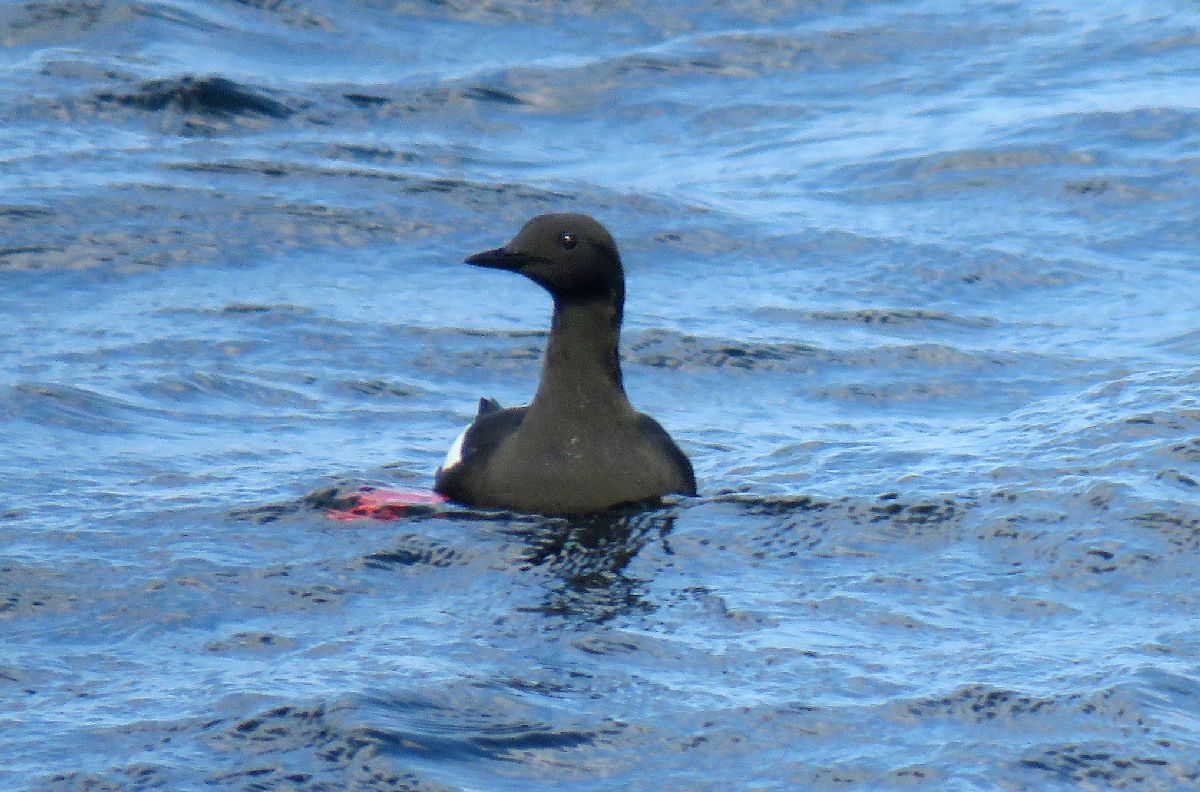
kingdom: Animalia
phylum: Chordata
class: Aves
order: Charadriiformes
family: Alcidae
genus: Cepphus
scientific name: Cepphus grylle
